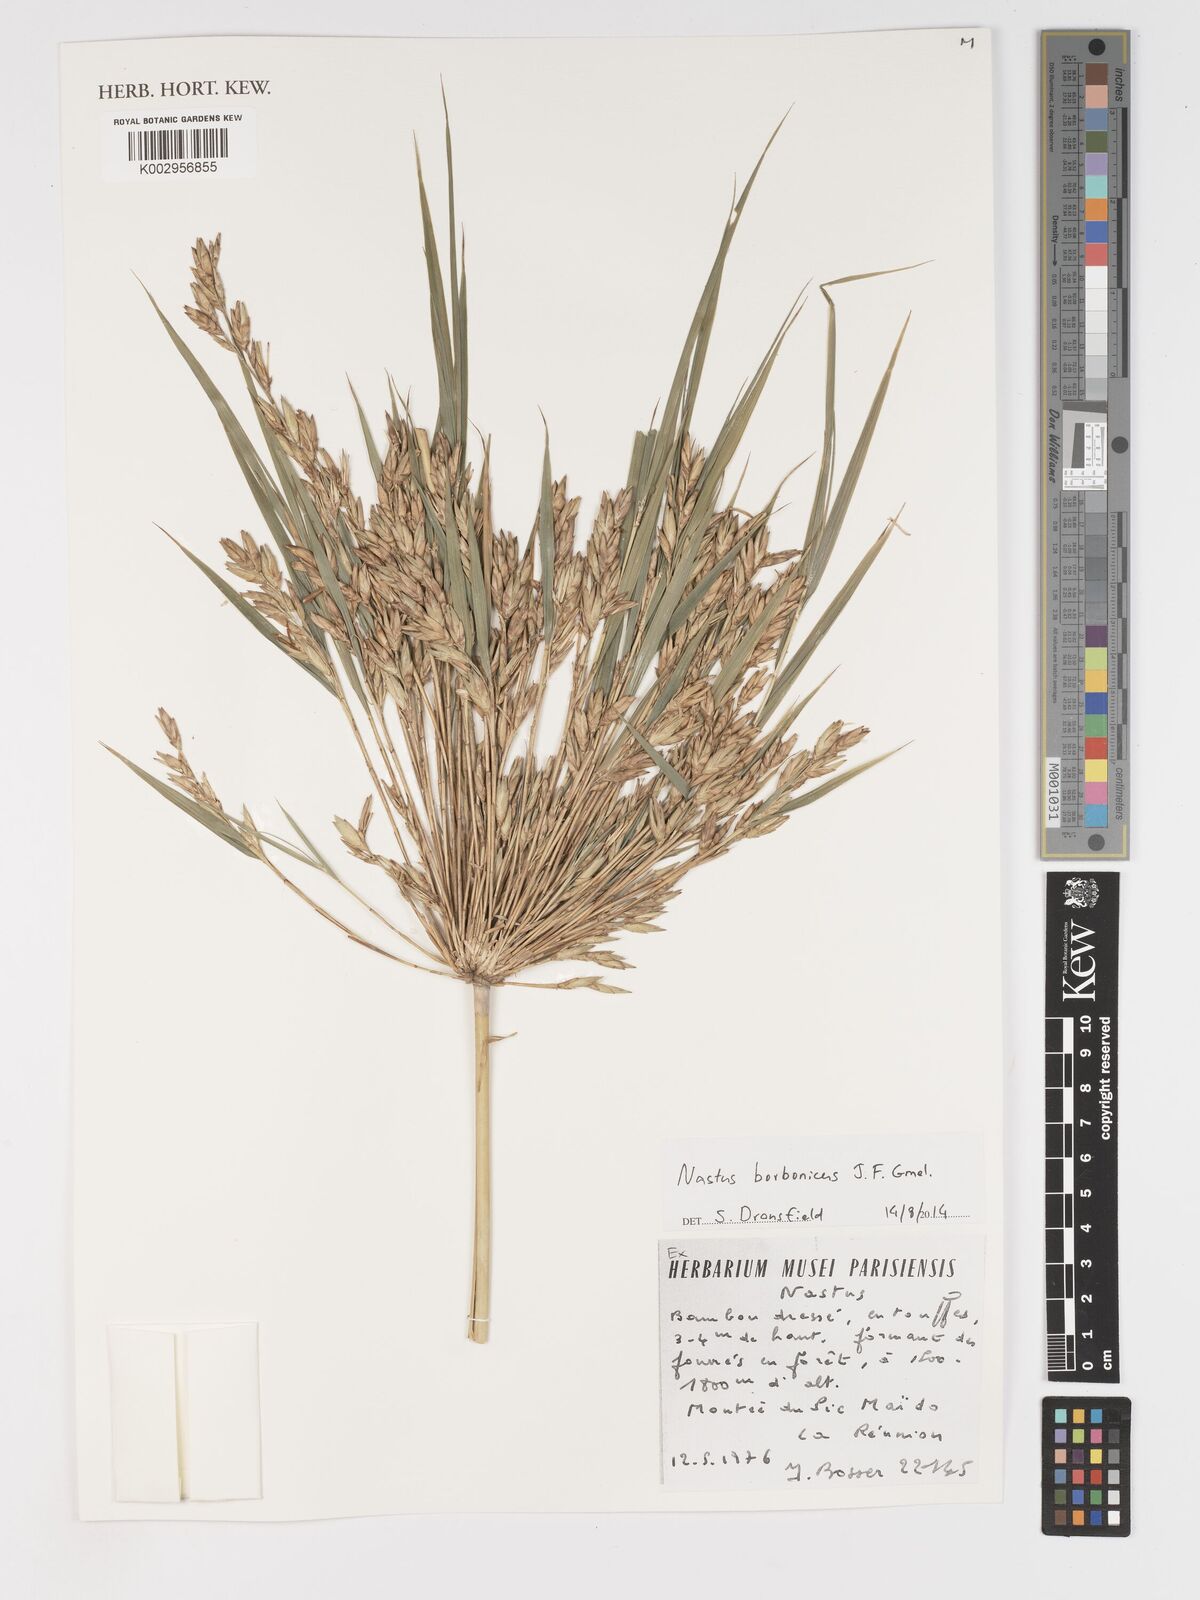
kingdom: Plantae
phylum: Tracheophyta
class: Liliopsida
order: Poales
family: Poaceae
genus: Nastus
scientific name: Nastus
